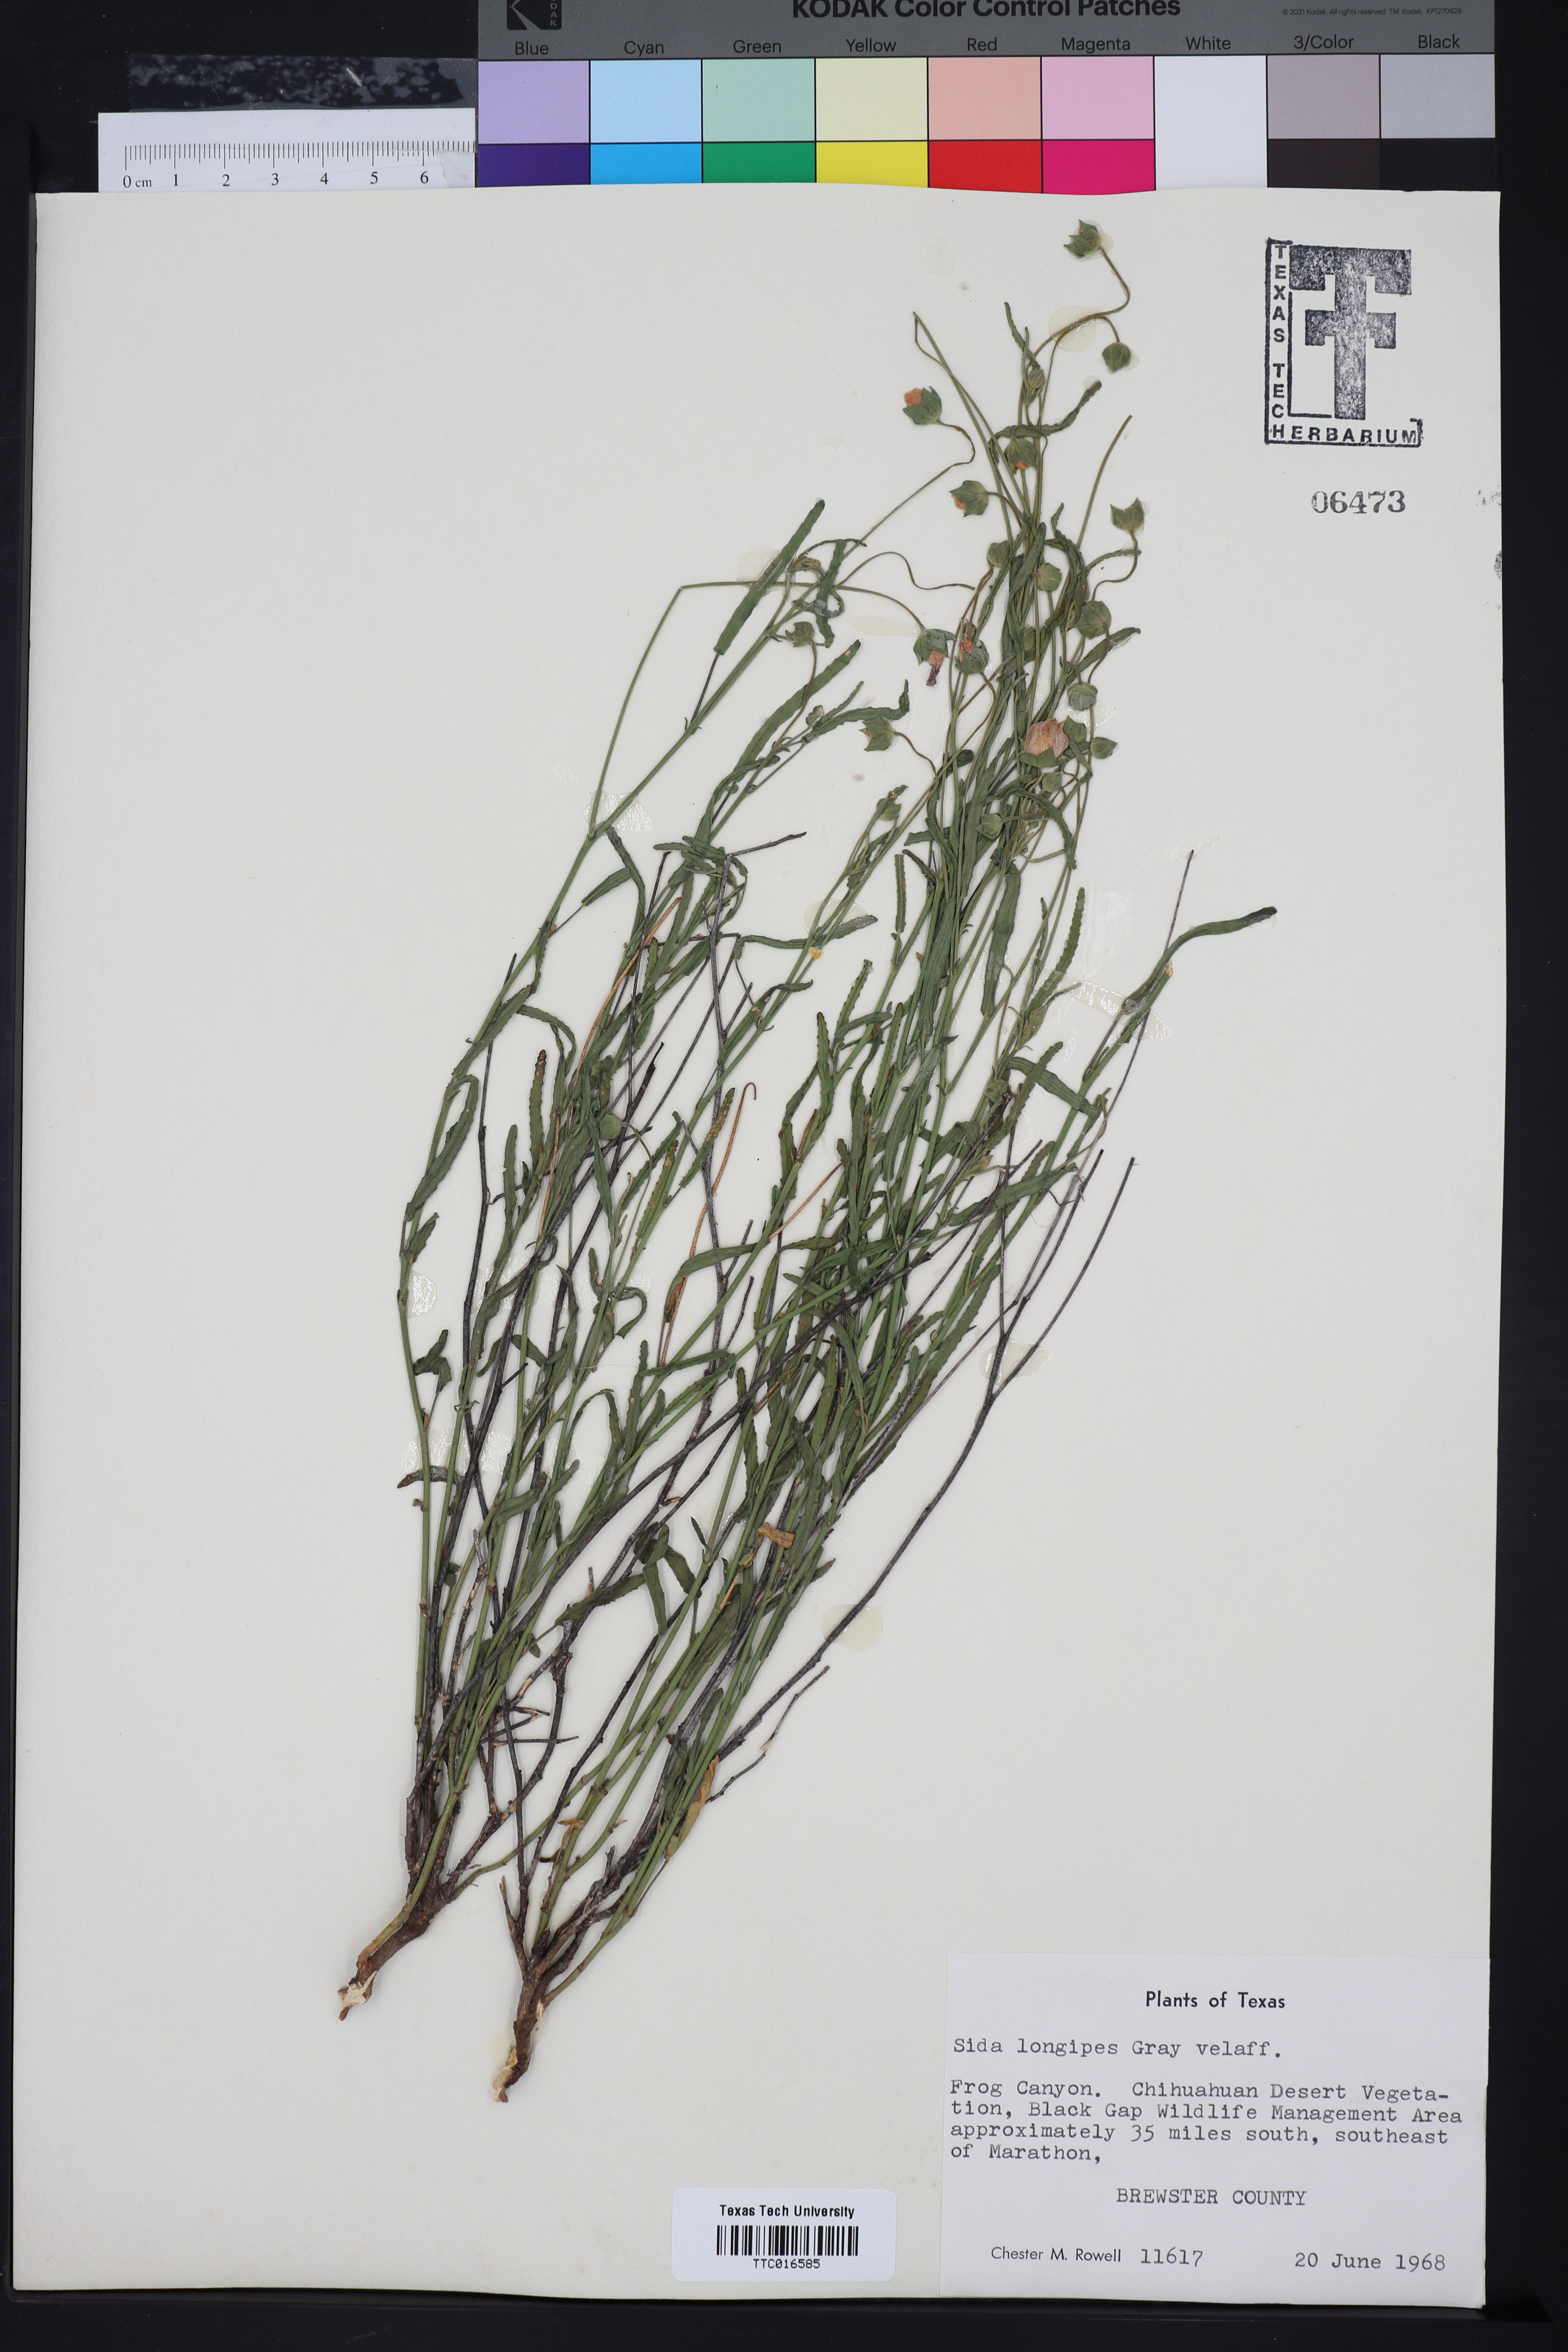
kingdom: Plantae
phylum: Tracheophyta
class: Magnoliopsida
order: Malvales
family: Malvaceae
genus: Sida
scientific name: Sida lancifolia
